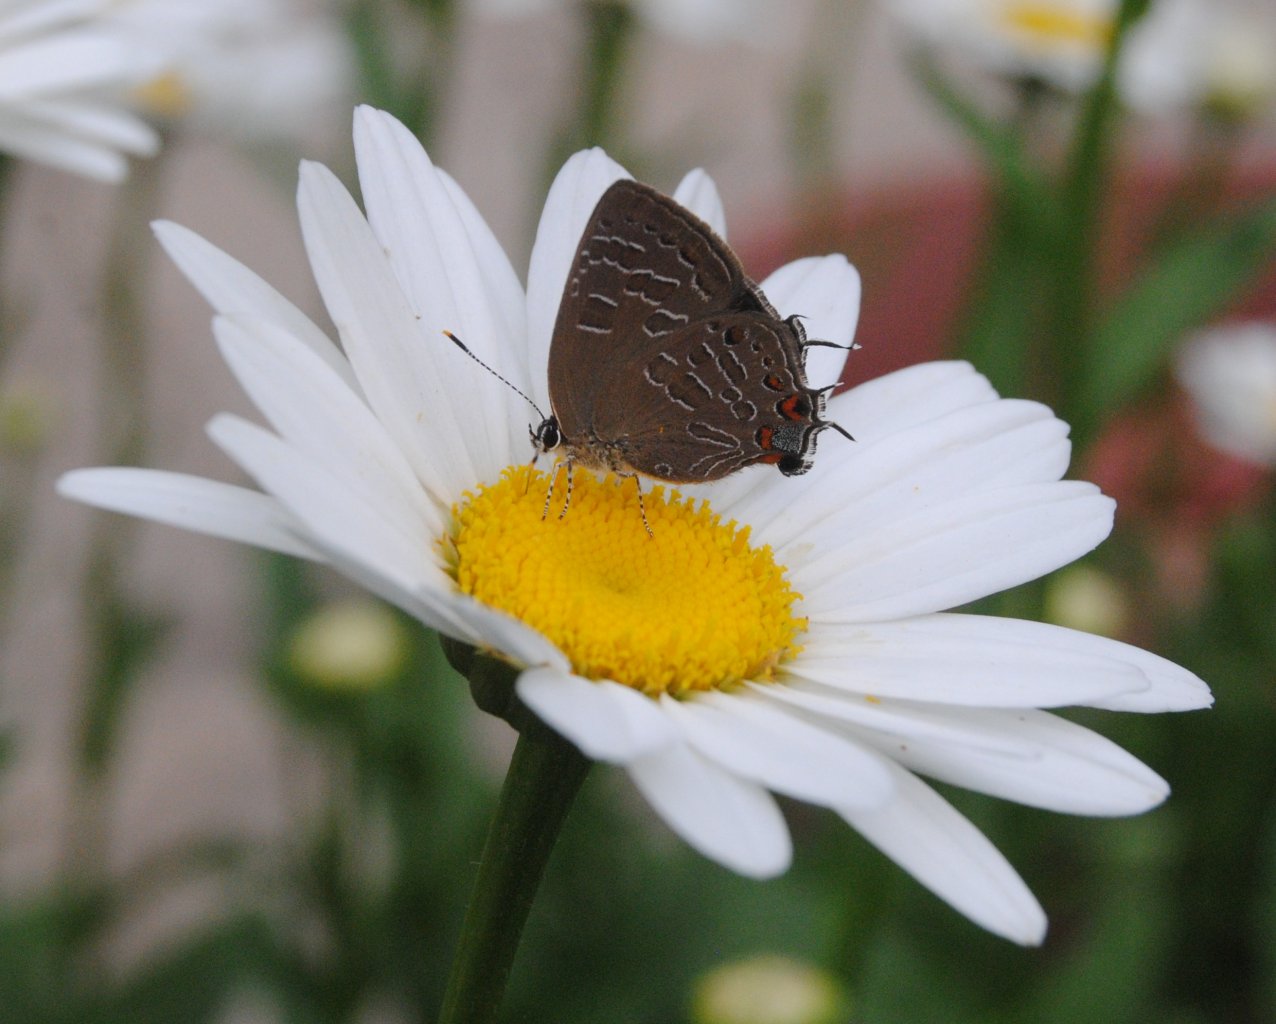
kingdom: Animalia
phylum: Arthropoda
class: Insecta
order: Lepidoptera
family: Lycaenidae
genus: Satyrium
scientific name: Satyrium liparops
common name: Striped Hairstreak
